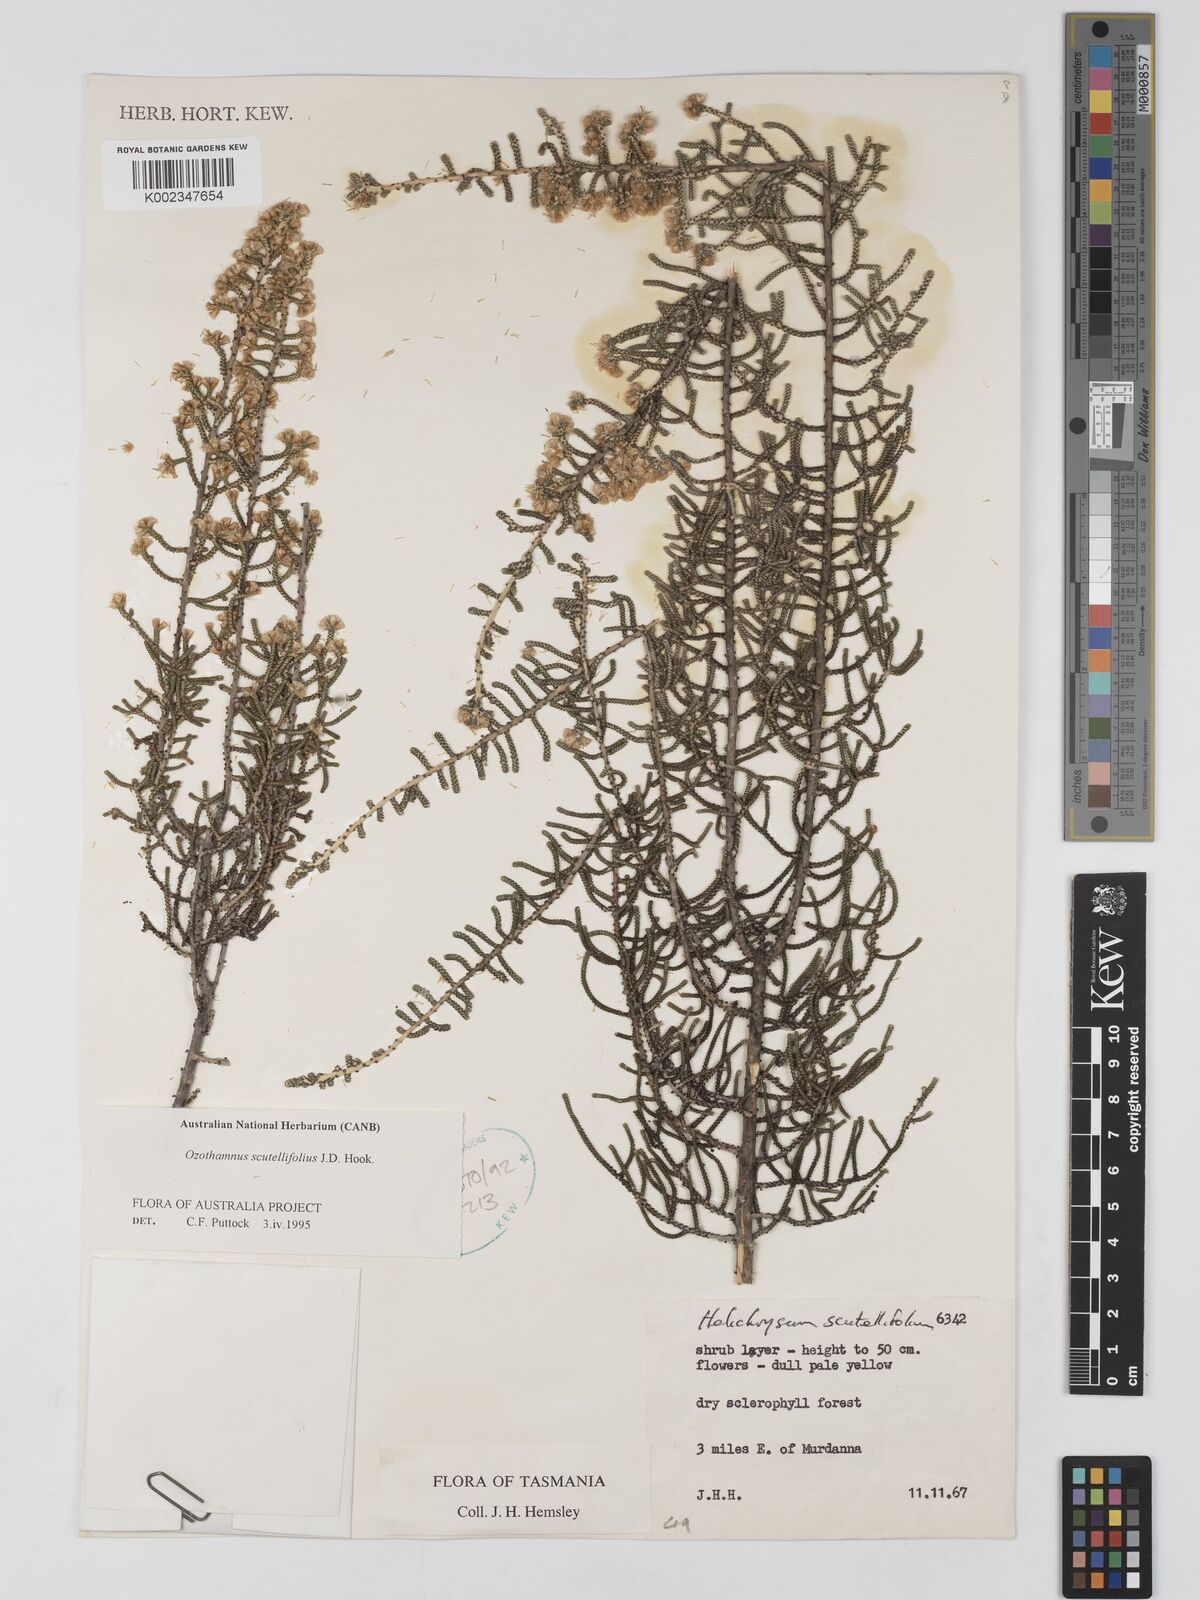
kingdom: Plantae
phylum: Tracheophyta
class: Magnoliopsida
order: Asterales
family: Asteraceae
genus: Ozothamnus
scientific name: Ozothamnus scutellifolius
